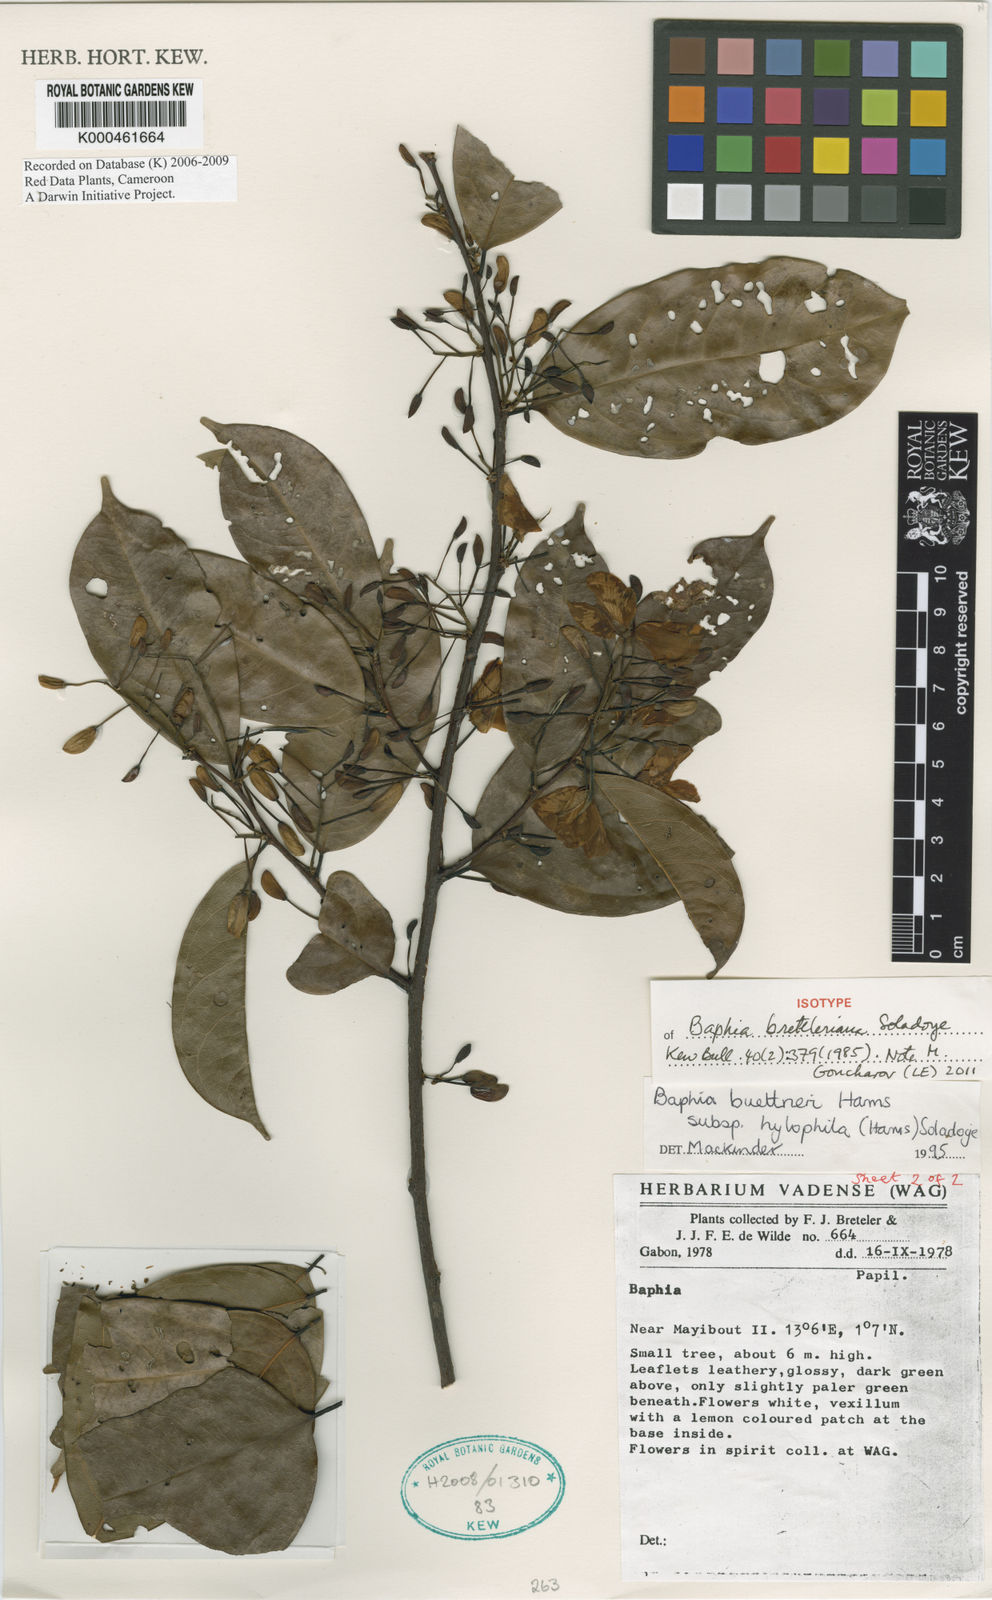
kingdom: Plantae
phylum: Tracheophyta
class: Magnoliopsida
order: Fabales
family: Fabaceae
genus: Baphia
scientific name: Baphia leptostemma
